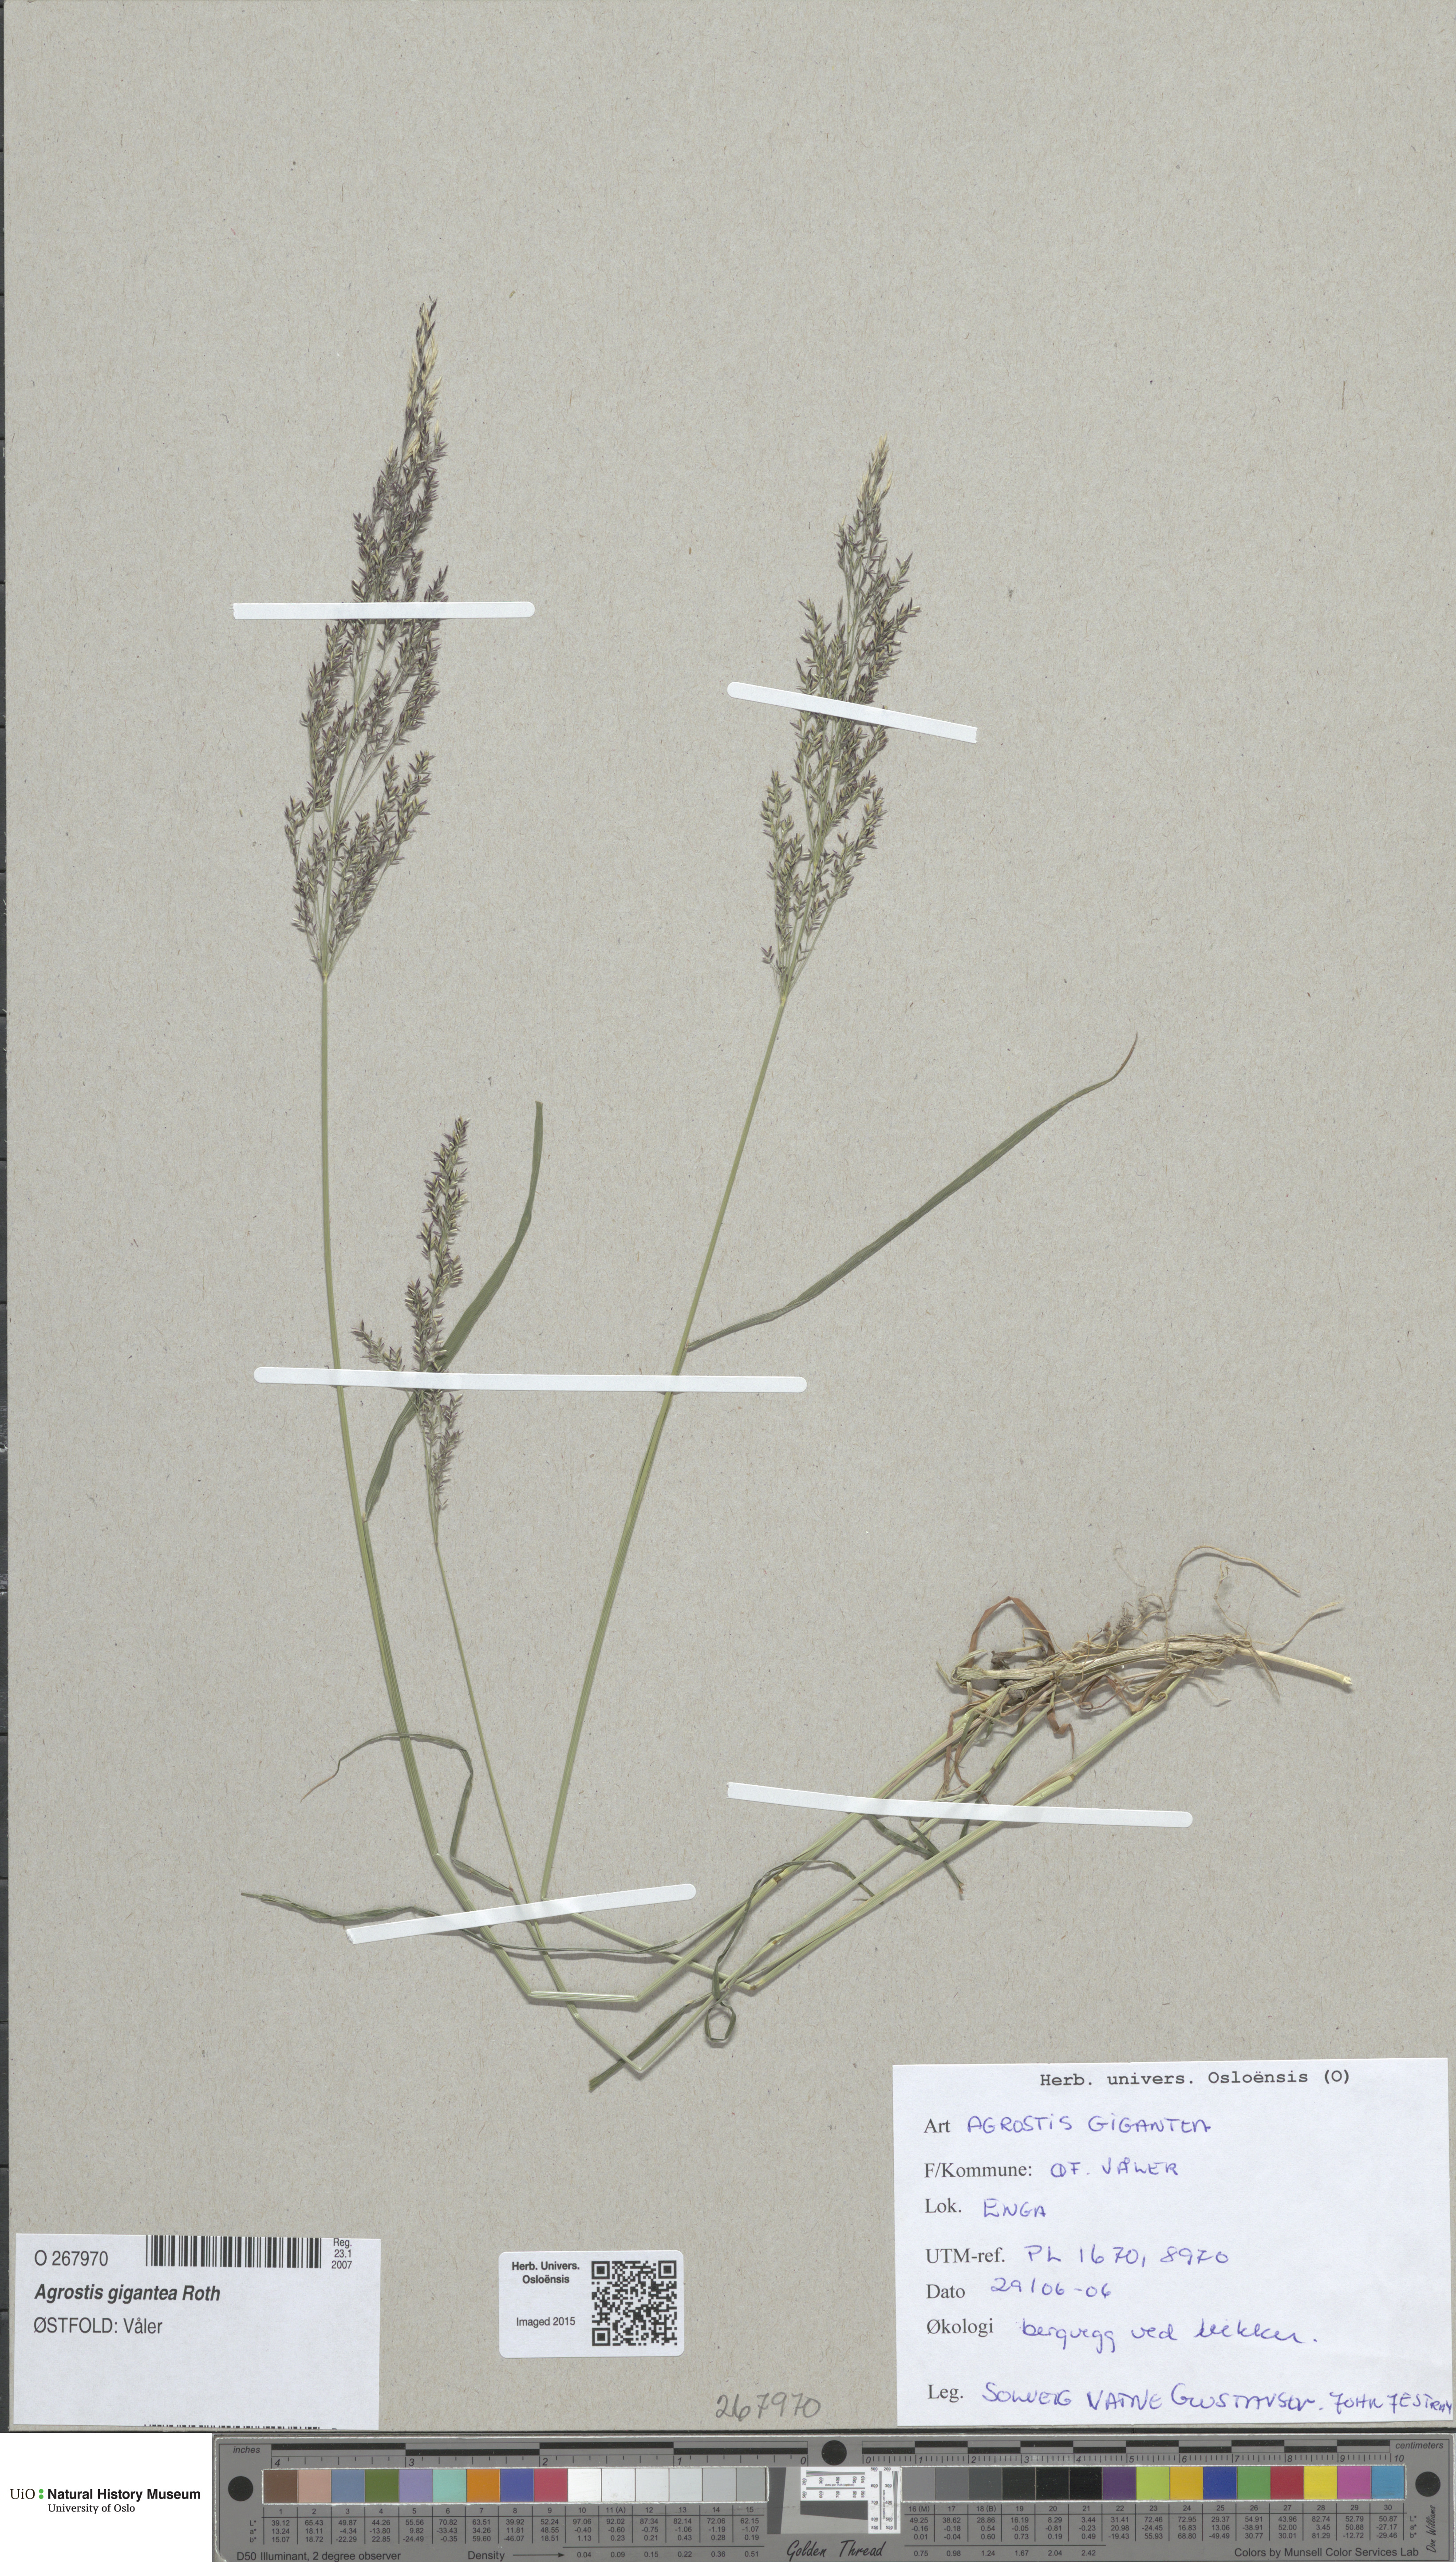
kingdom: Plantae
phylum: Tracheophyta
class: Liliopsida
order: Poales
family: Poaceae
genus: Agrostis
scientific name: Agrostis gigantea
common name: Black bent
